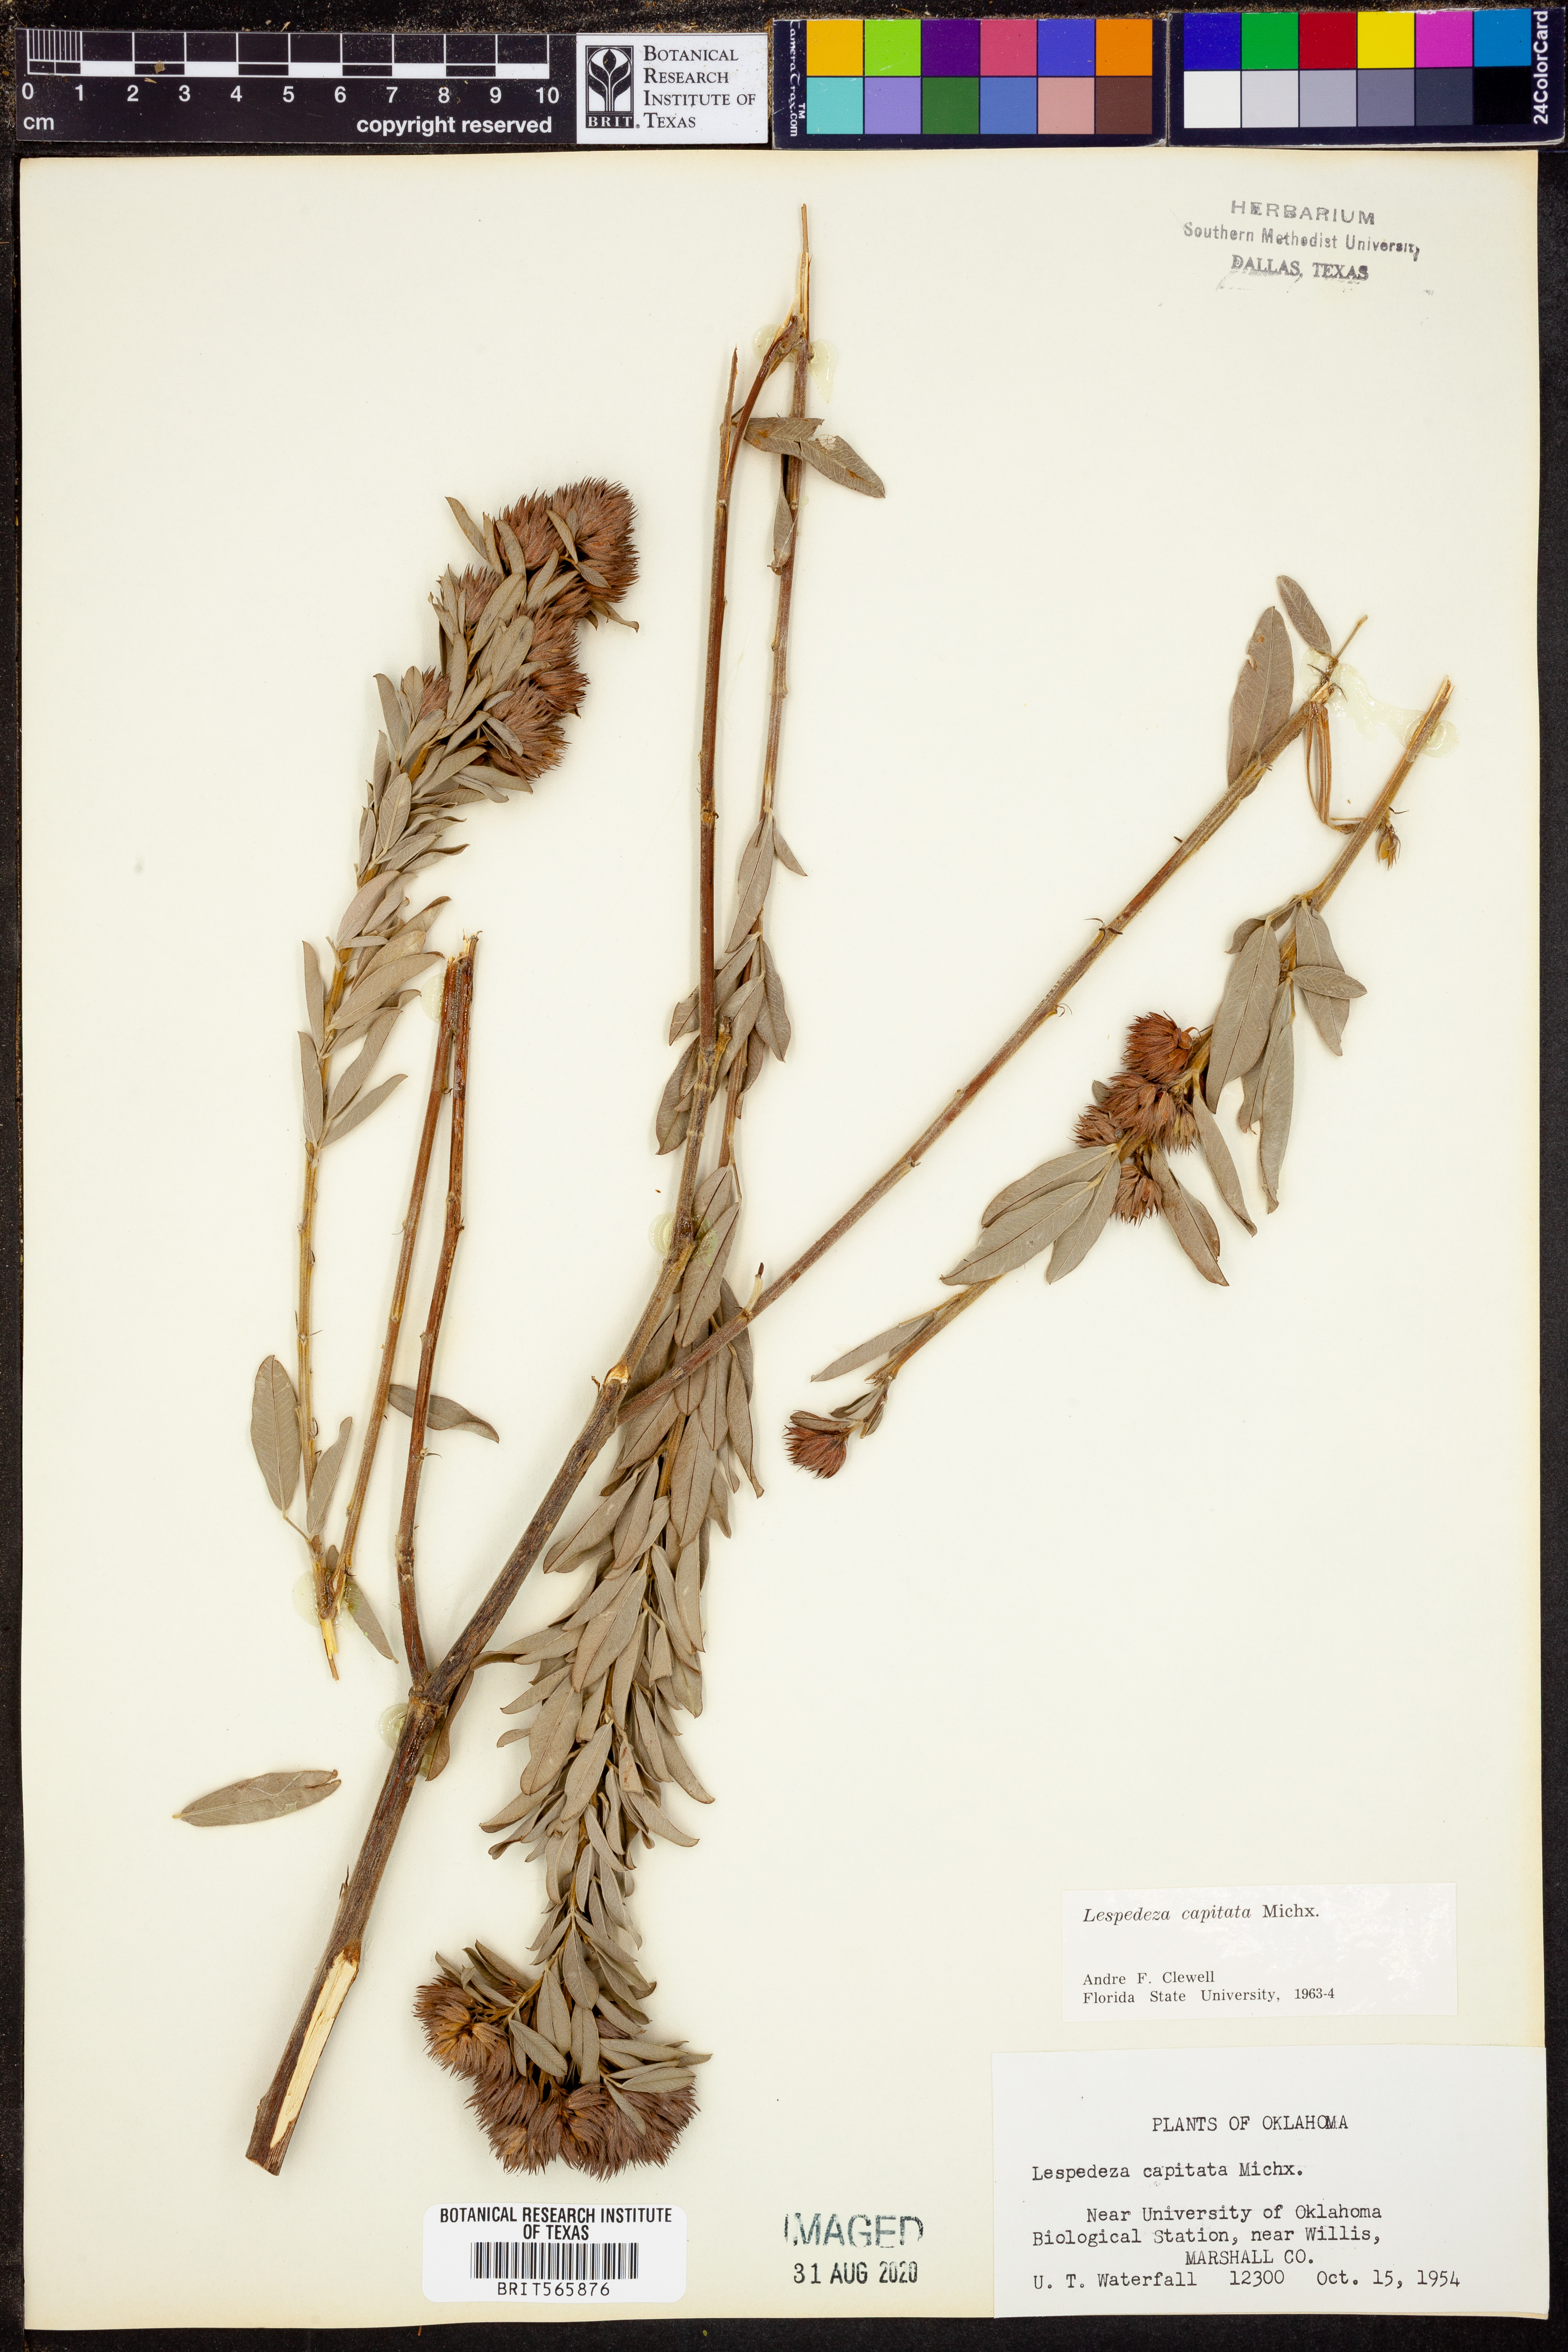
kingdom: Plantae
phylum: Tracheophyta
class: Magnoliopsida
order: Fabales
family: Fabaceae
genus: Lespedeza
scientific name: Lespedeza capitata
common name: Dusty clover
